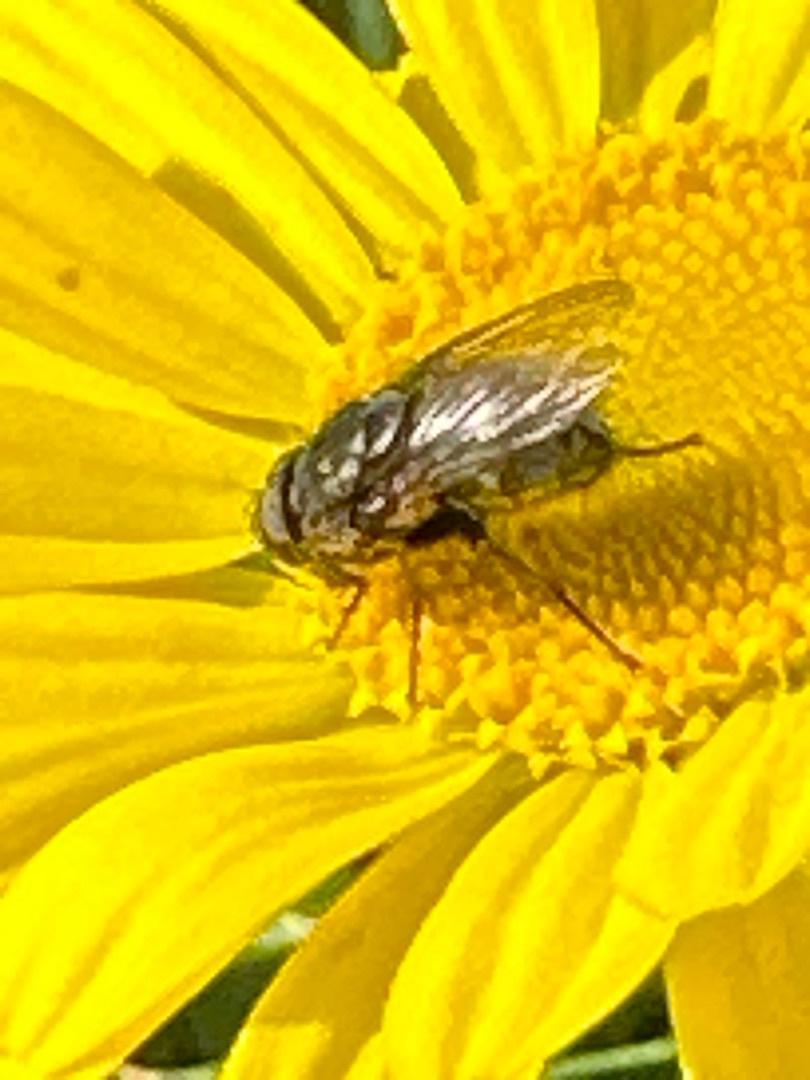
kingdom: Animalia
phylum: Arthropoda
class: Insecta
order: Diptera
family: Polleniidae
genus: Pollenia
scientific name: Pollenia
